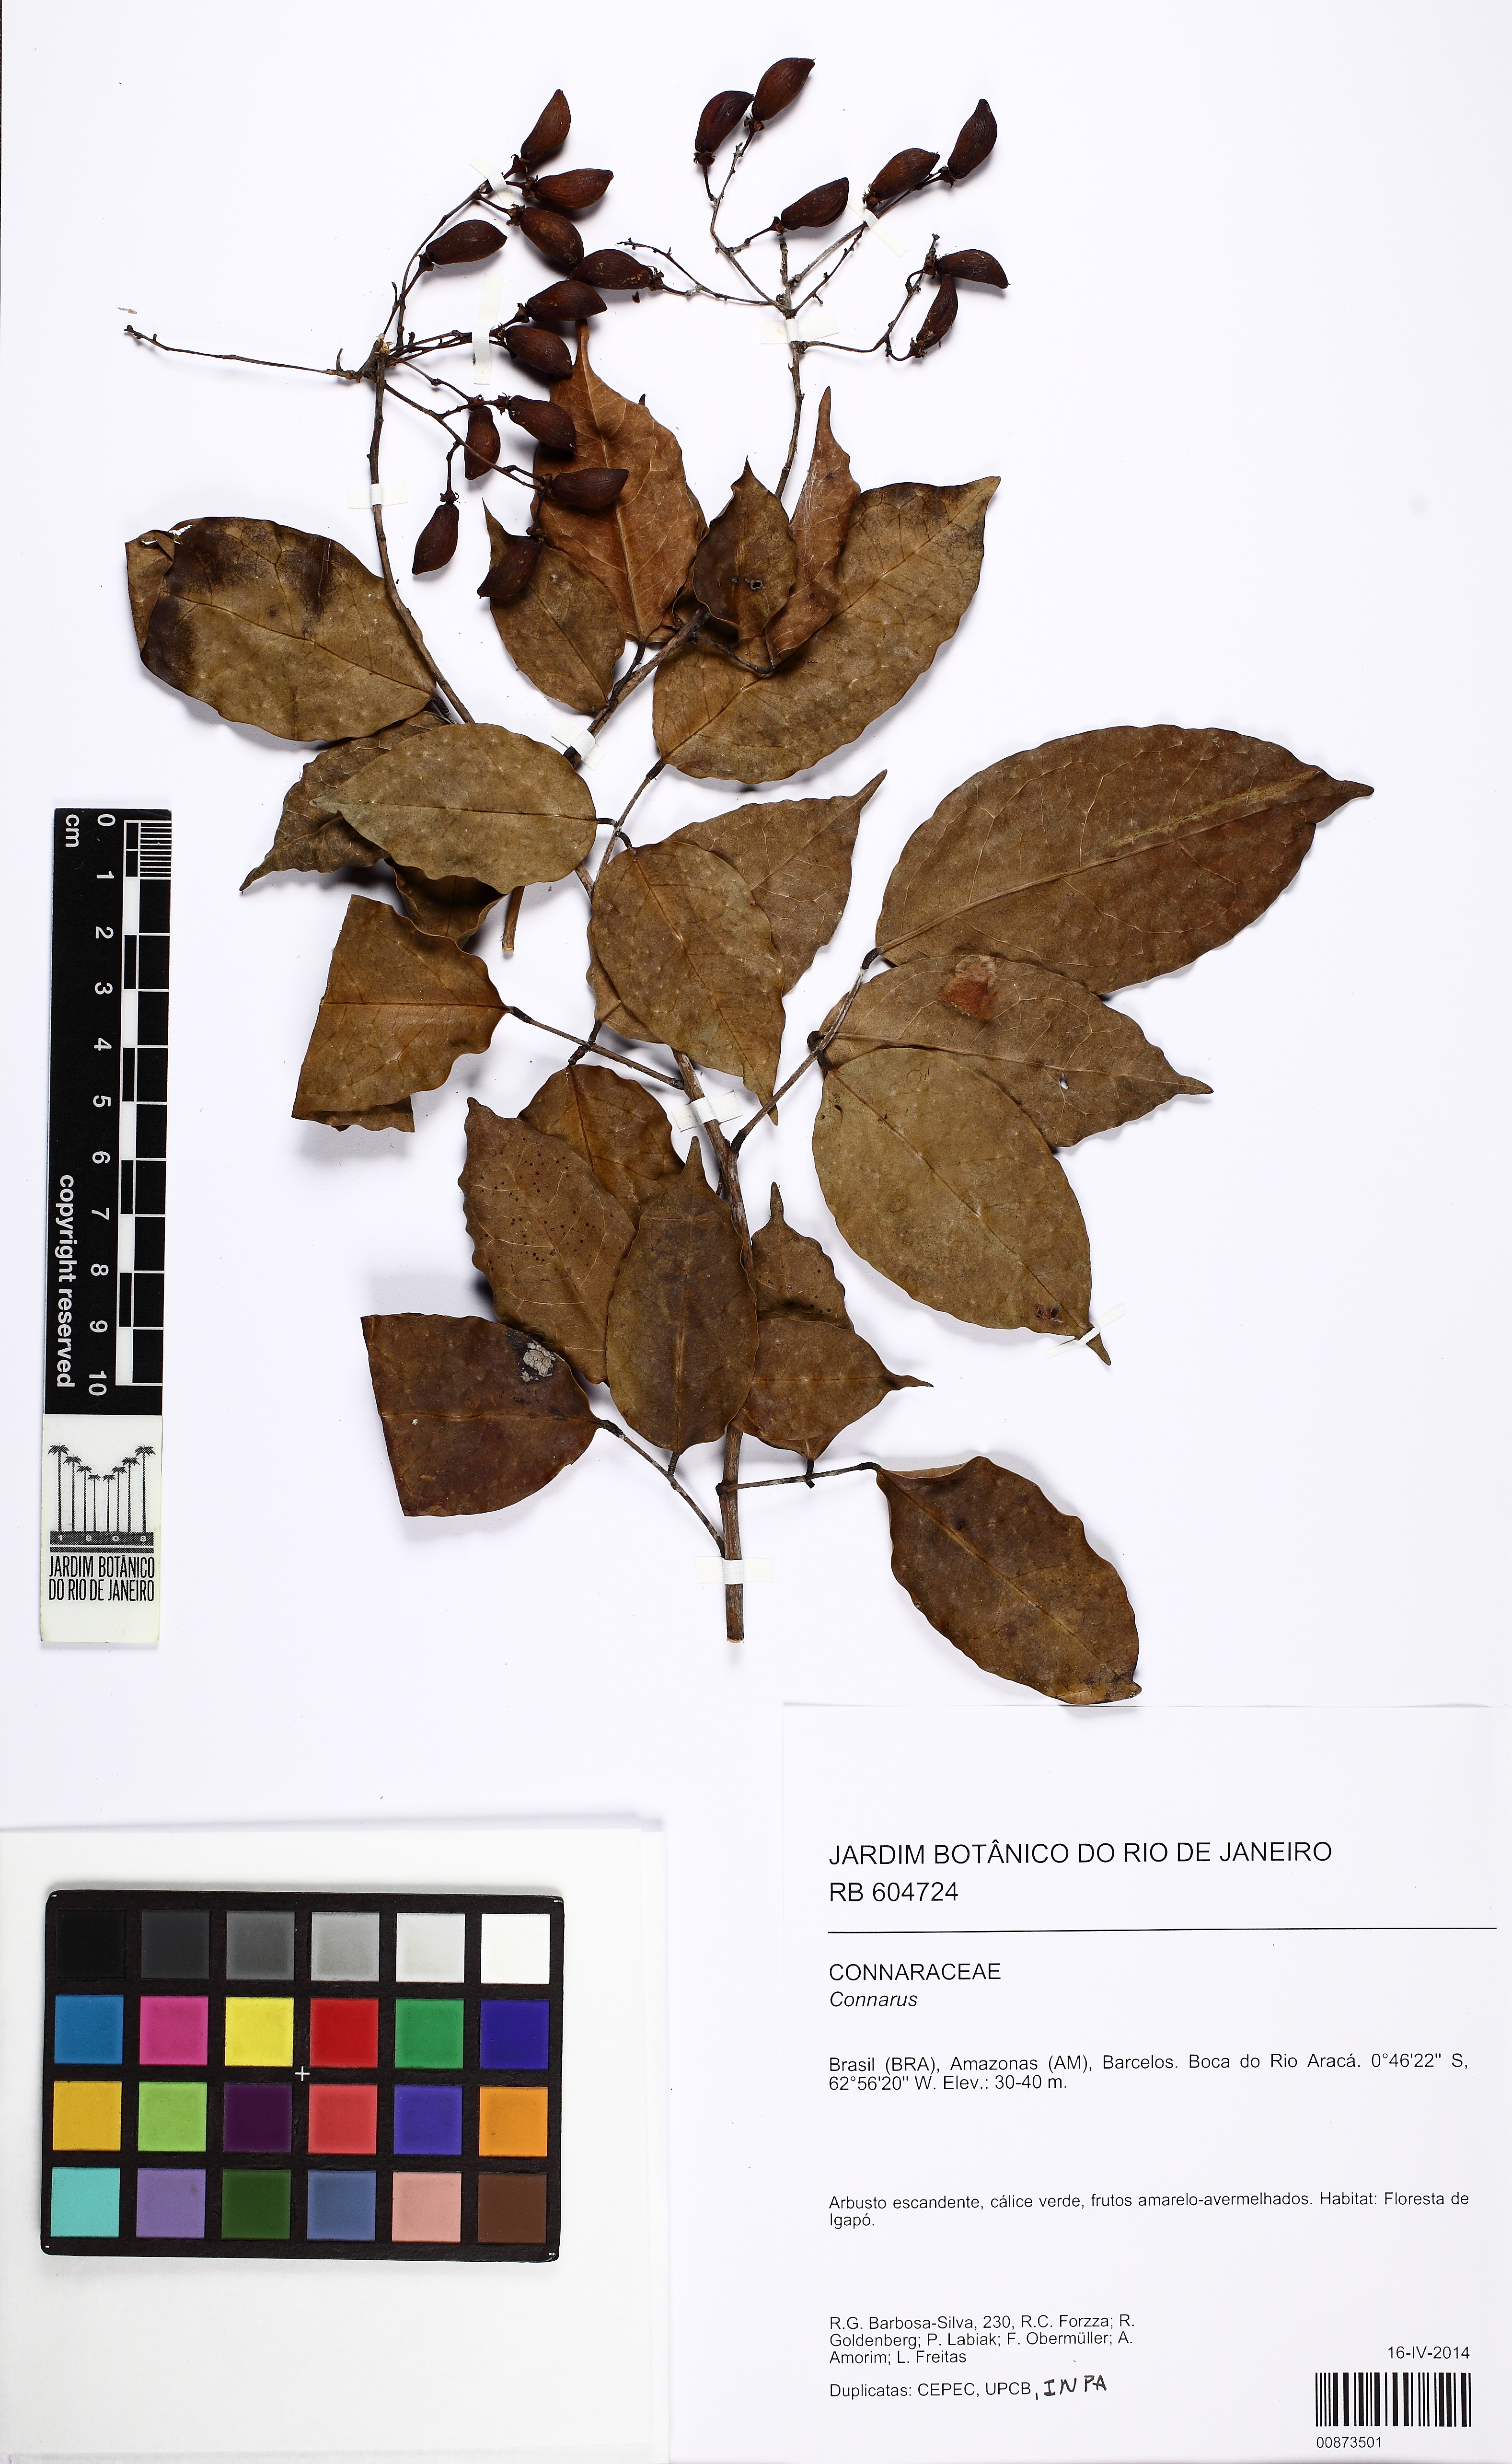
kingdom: Plantae
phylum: Tracheophyta
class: Magnoliopsida
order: Oxalidales
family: Connaraceae
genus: Rourea
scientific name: Rourea
